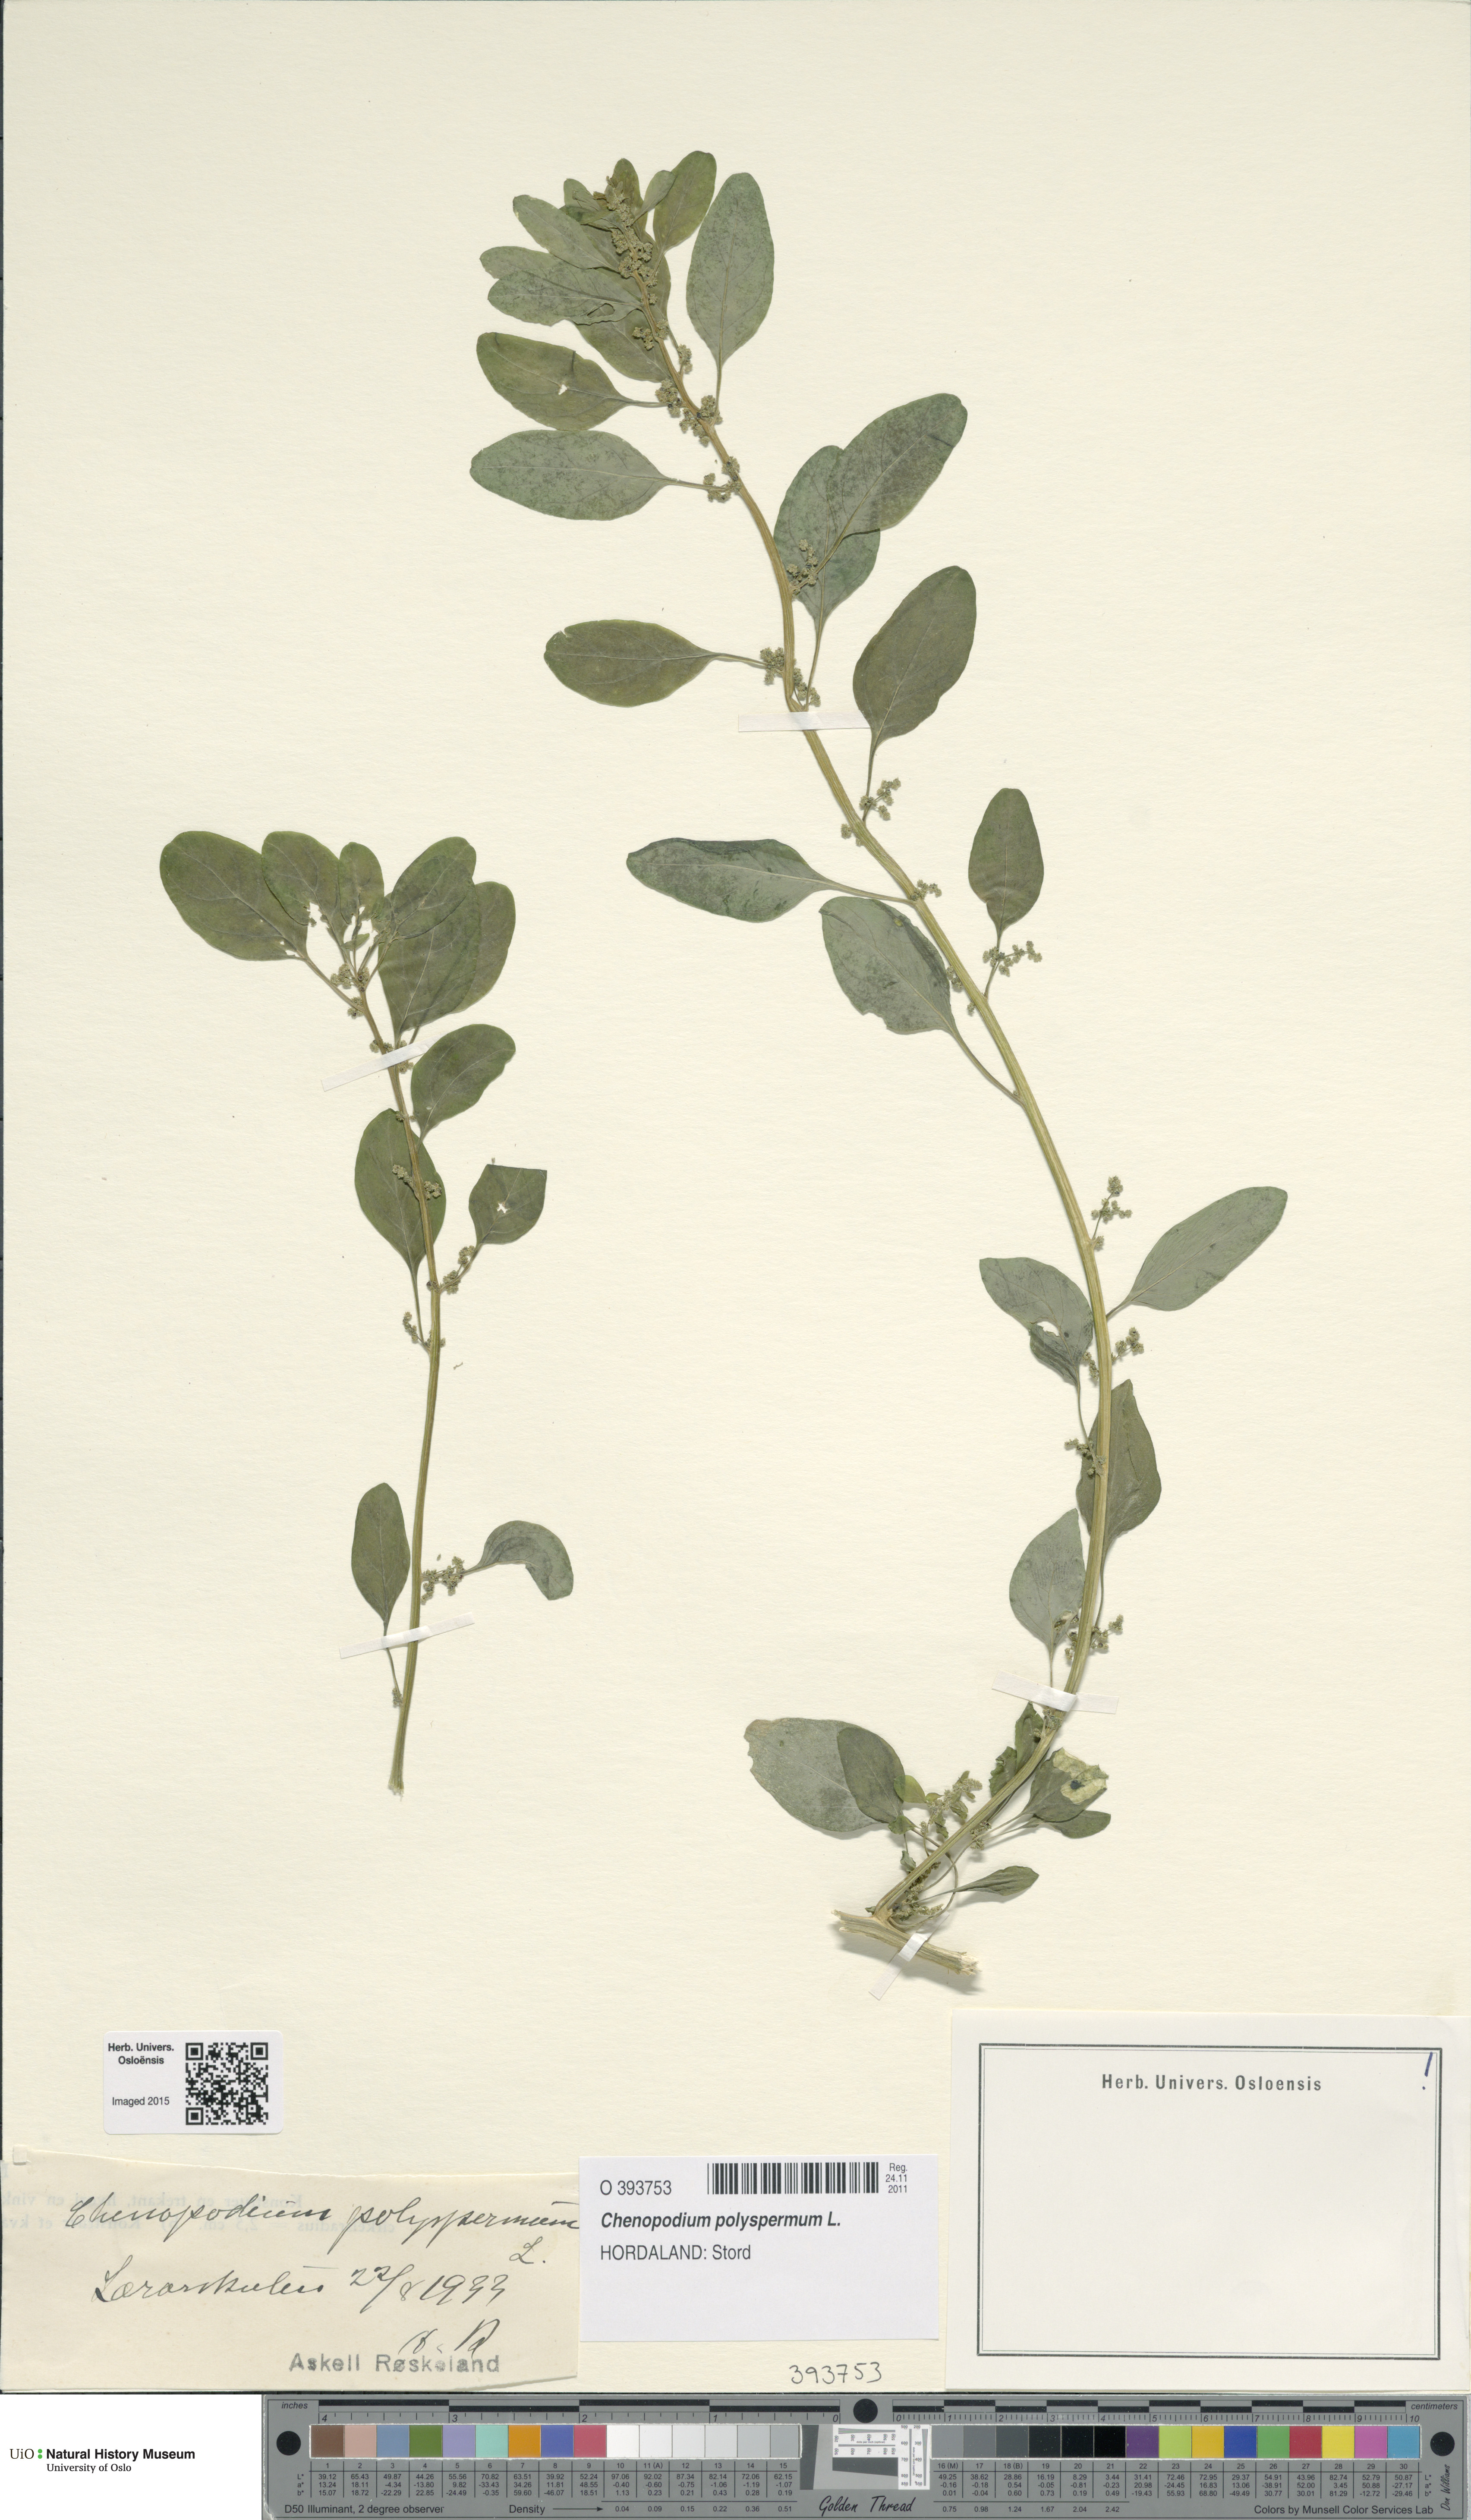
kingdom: Plantae
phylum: Tracheophyta
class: Magnoliopsida
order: Caryophyllales
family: Amaranthaceae
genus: Lipandra
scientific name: Lipandra polysperma
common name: Many-seed goosefoot
